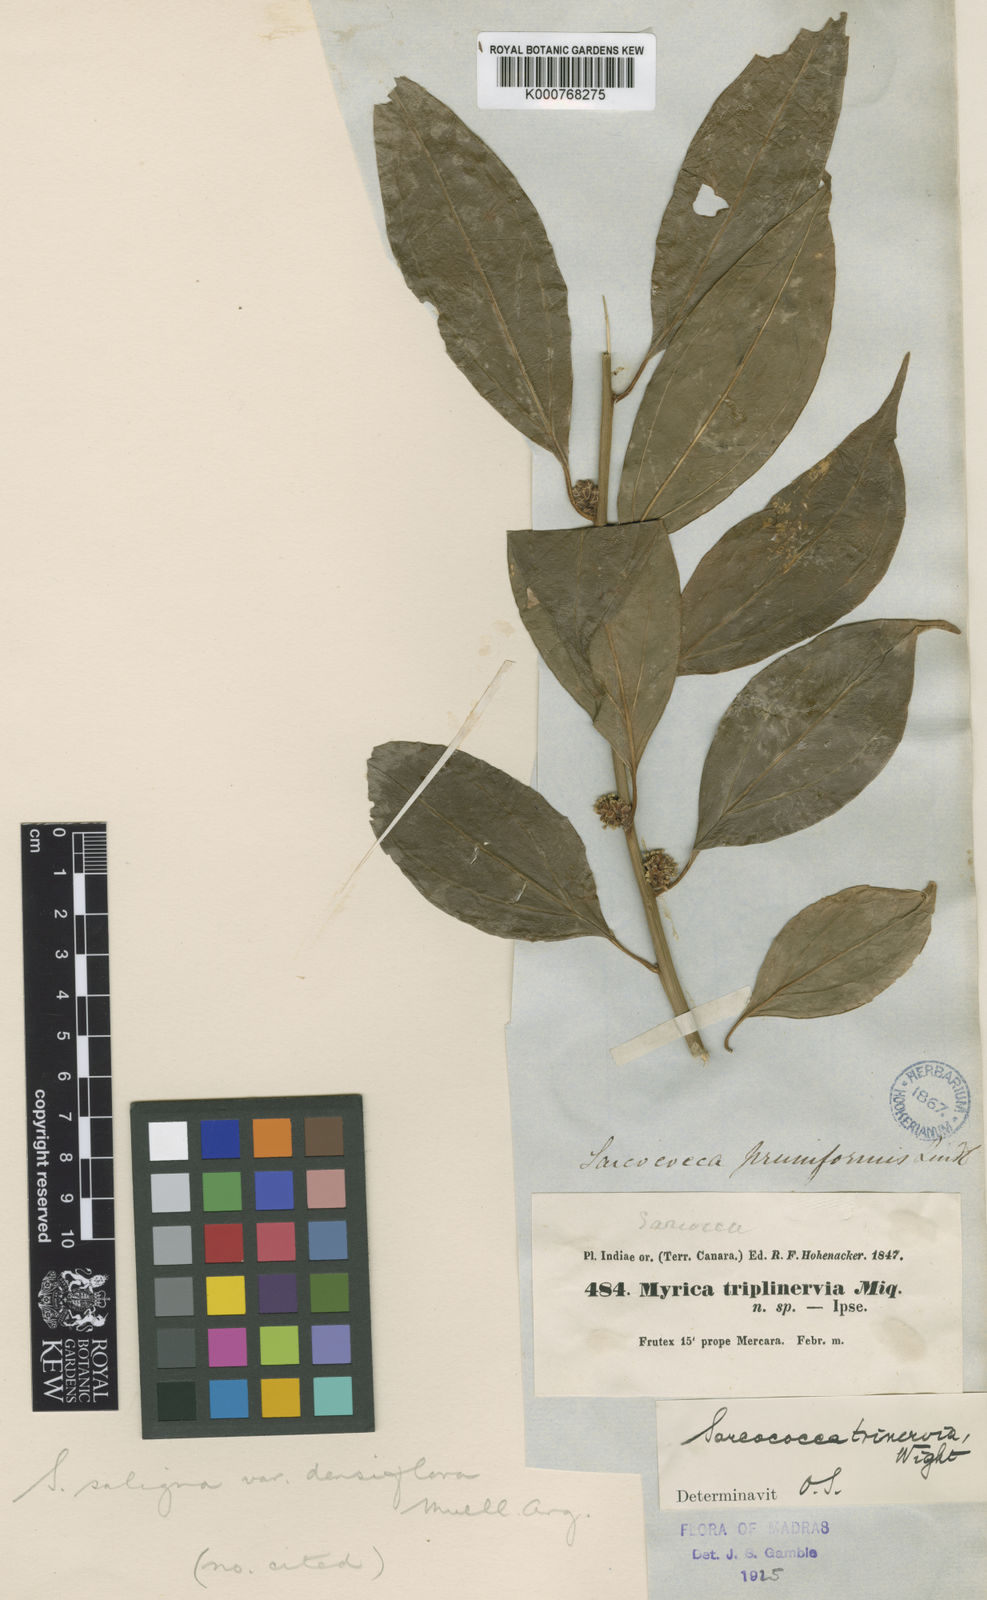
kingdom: Plantae
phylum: Tracheophyta
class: Magnoliopsida
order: Buxales
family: Buxaceae
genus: Sarcococca
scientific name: Sarcococca coriacea
